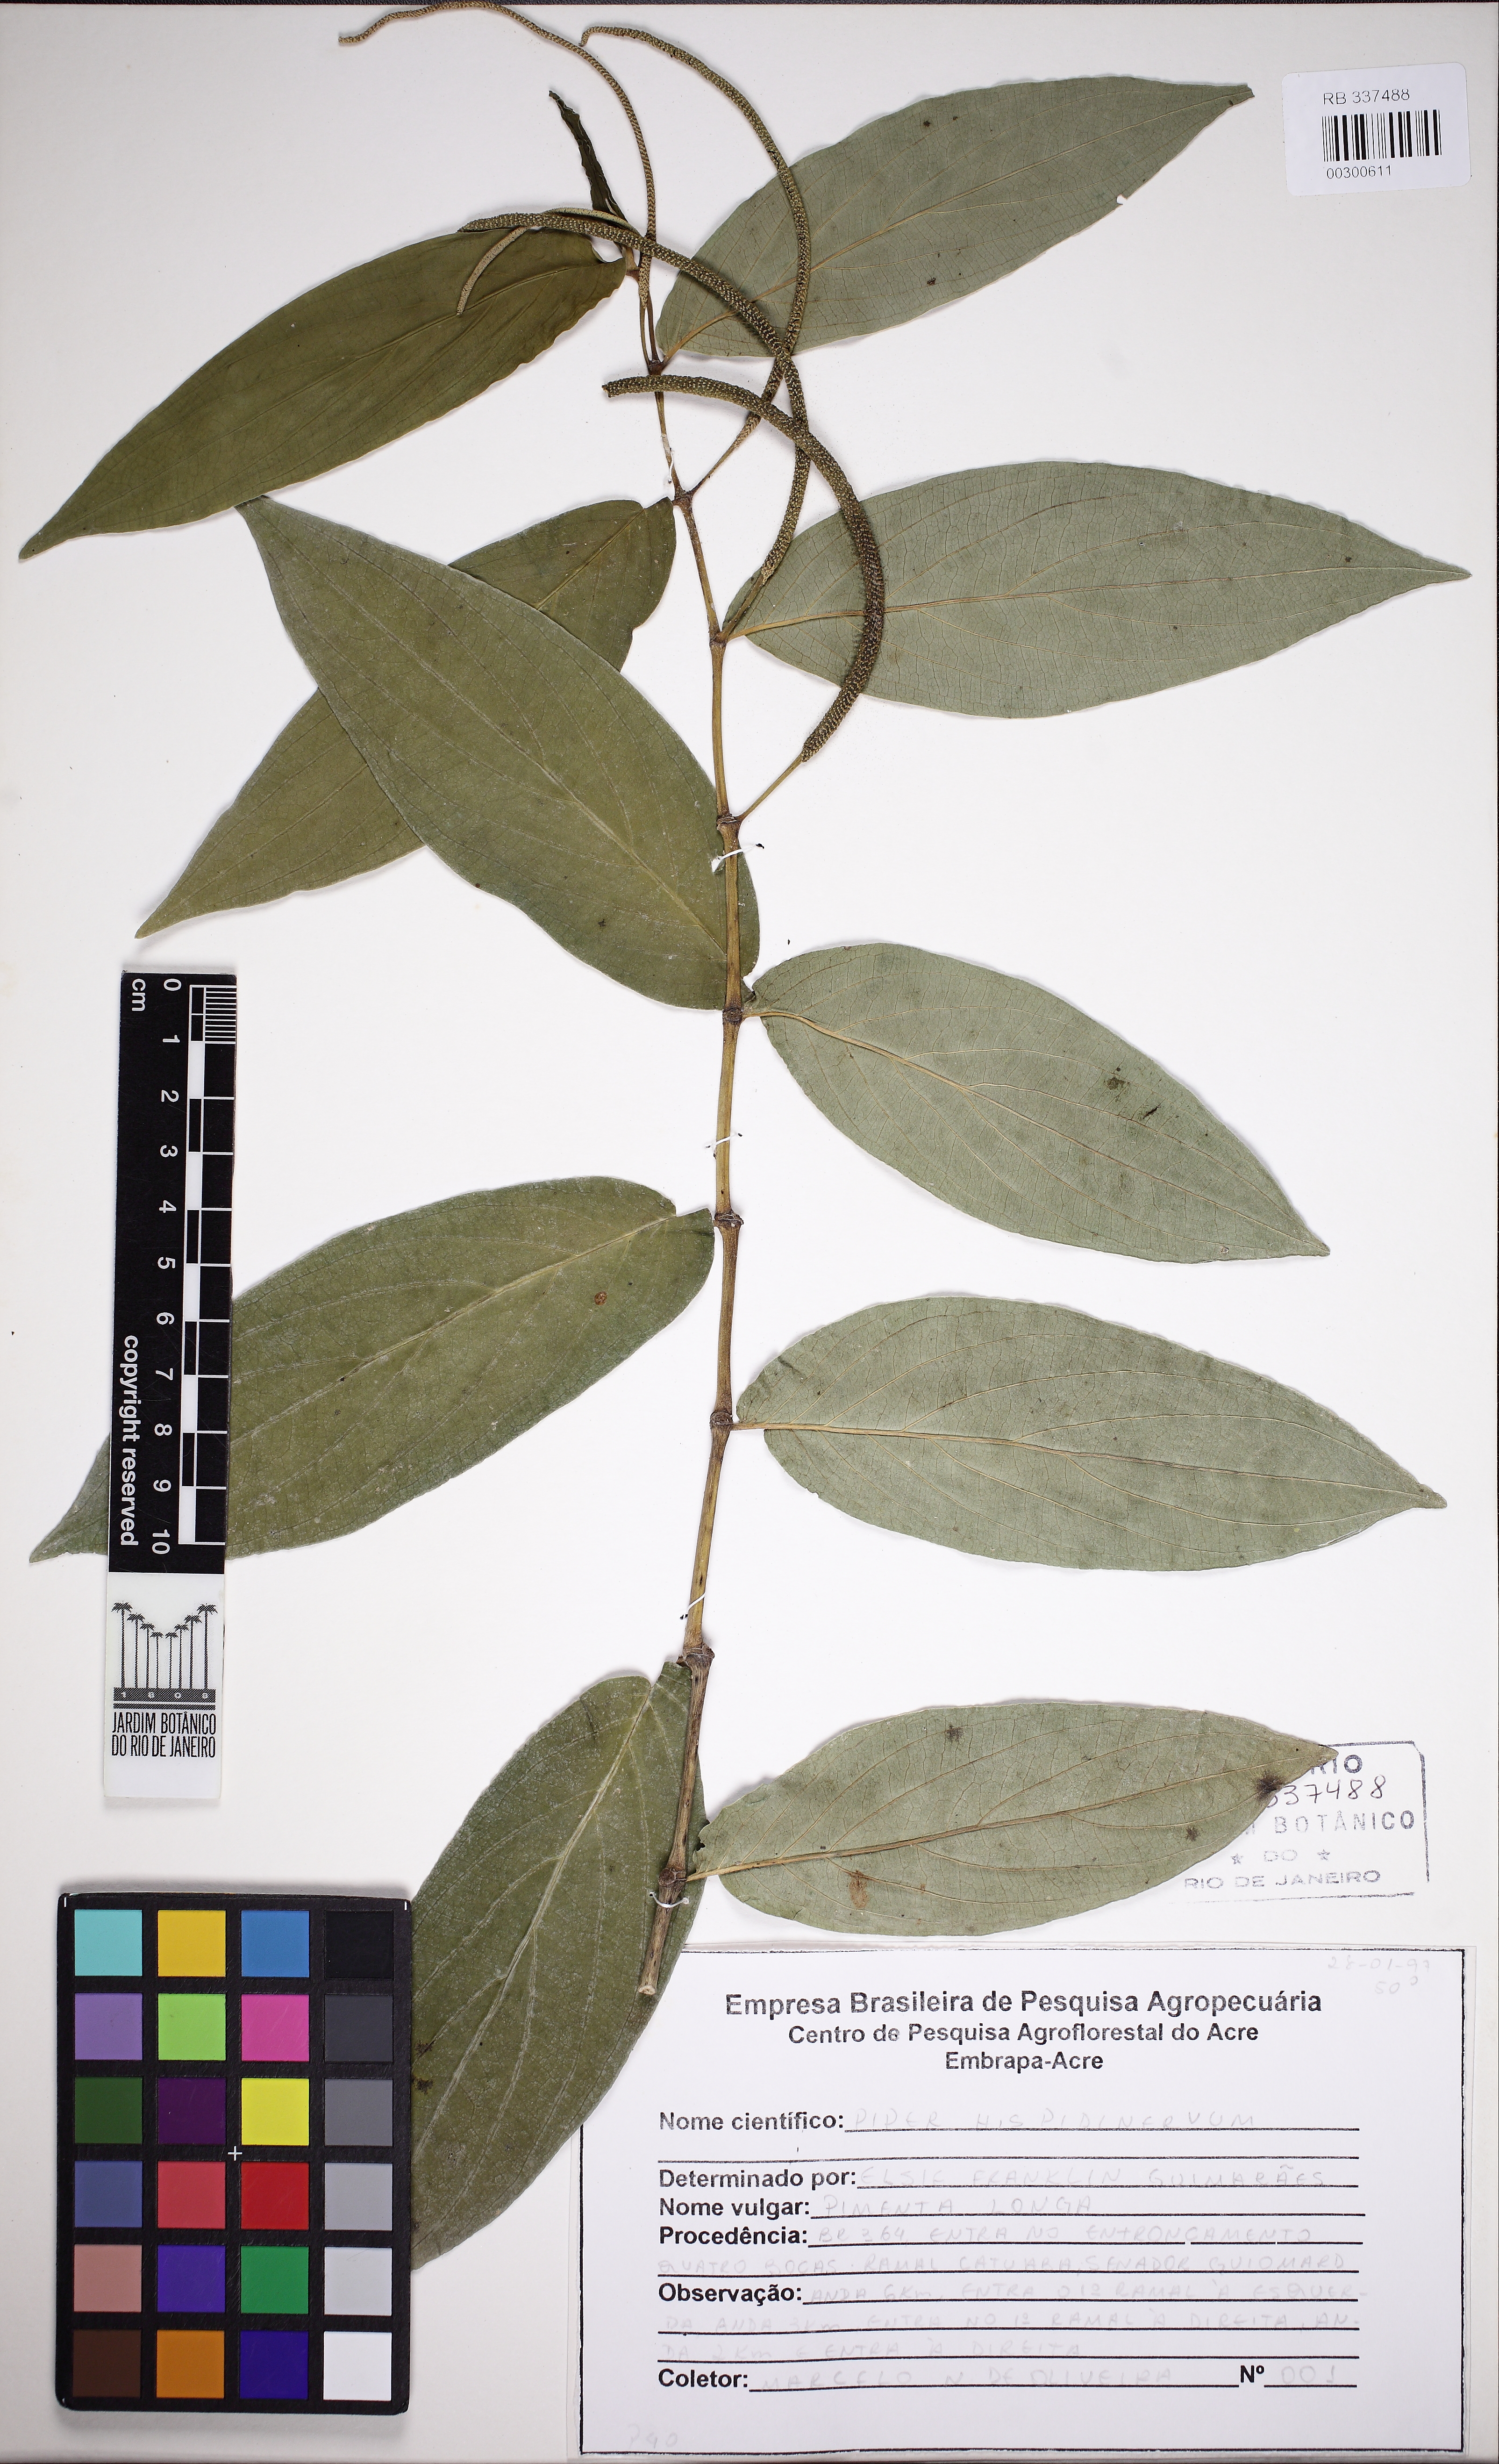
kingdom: Plantae
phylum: Tracheophyta
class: Magnoliopsida
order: Piperales
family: Piperaceae
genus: Piper
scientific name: Piper hispidinervum
